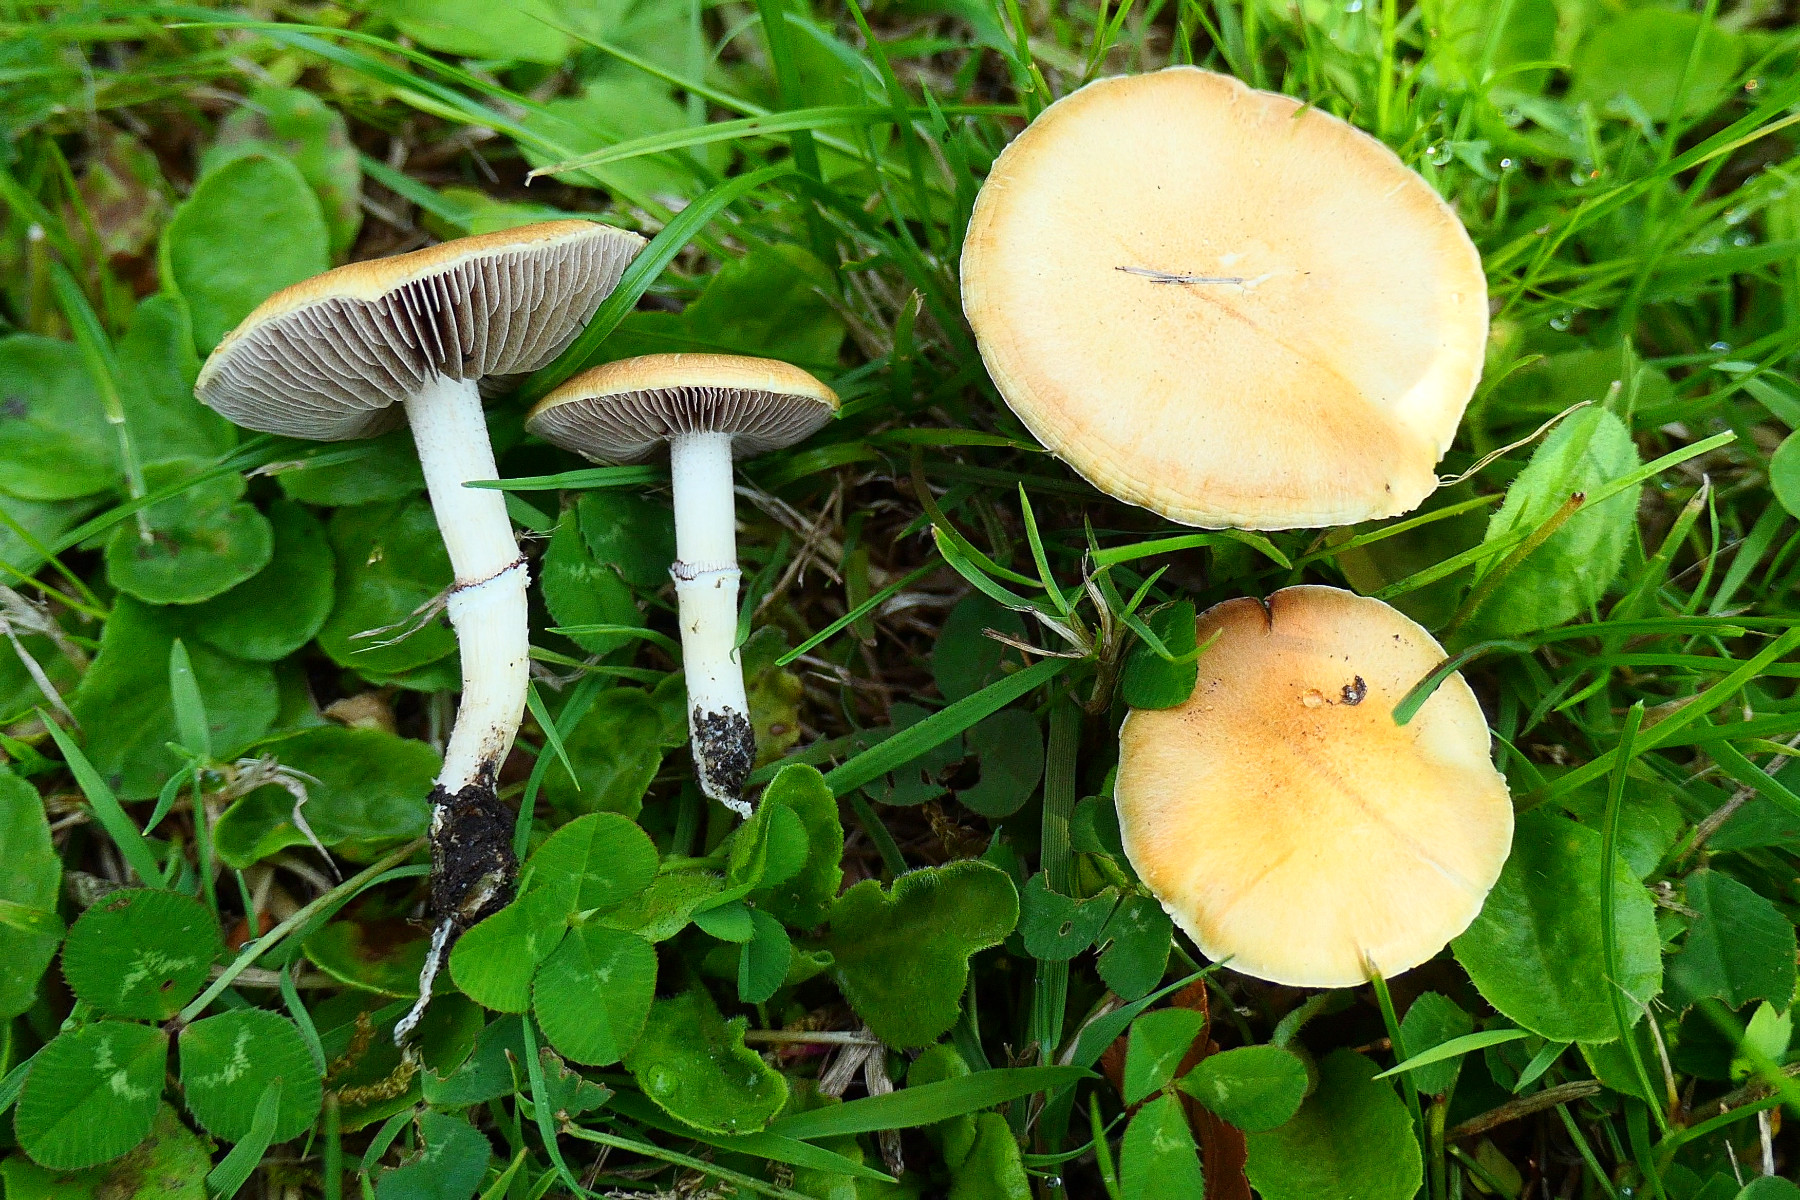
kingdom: Fungi
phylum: Basidiomycota
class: Agaricomycetes
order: Agaricales
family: Hymenogastraceae
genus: Psilocybe
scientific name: Psilocybe coronilla
